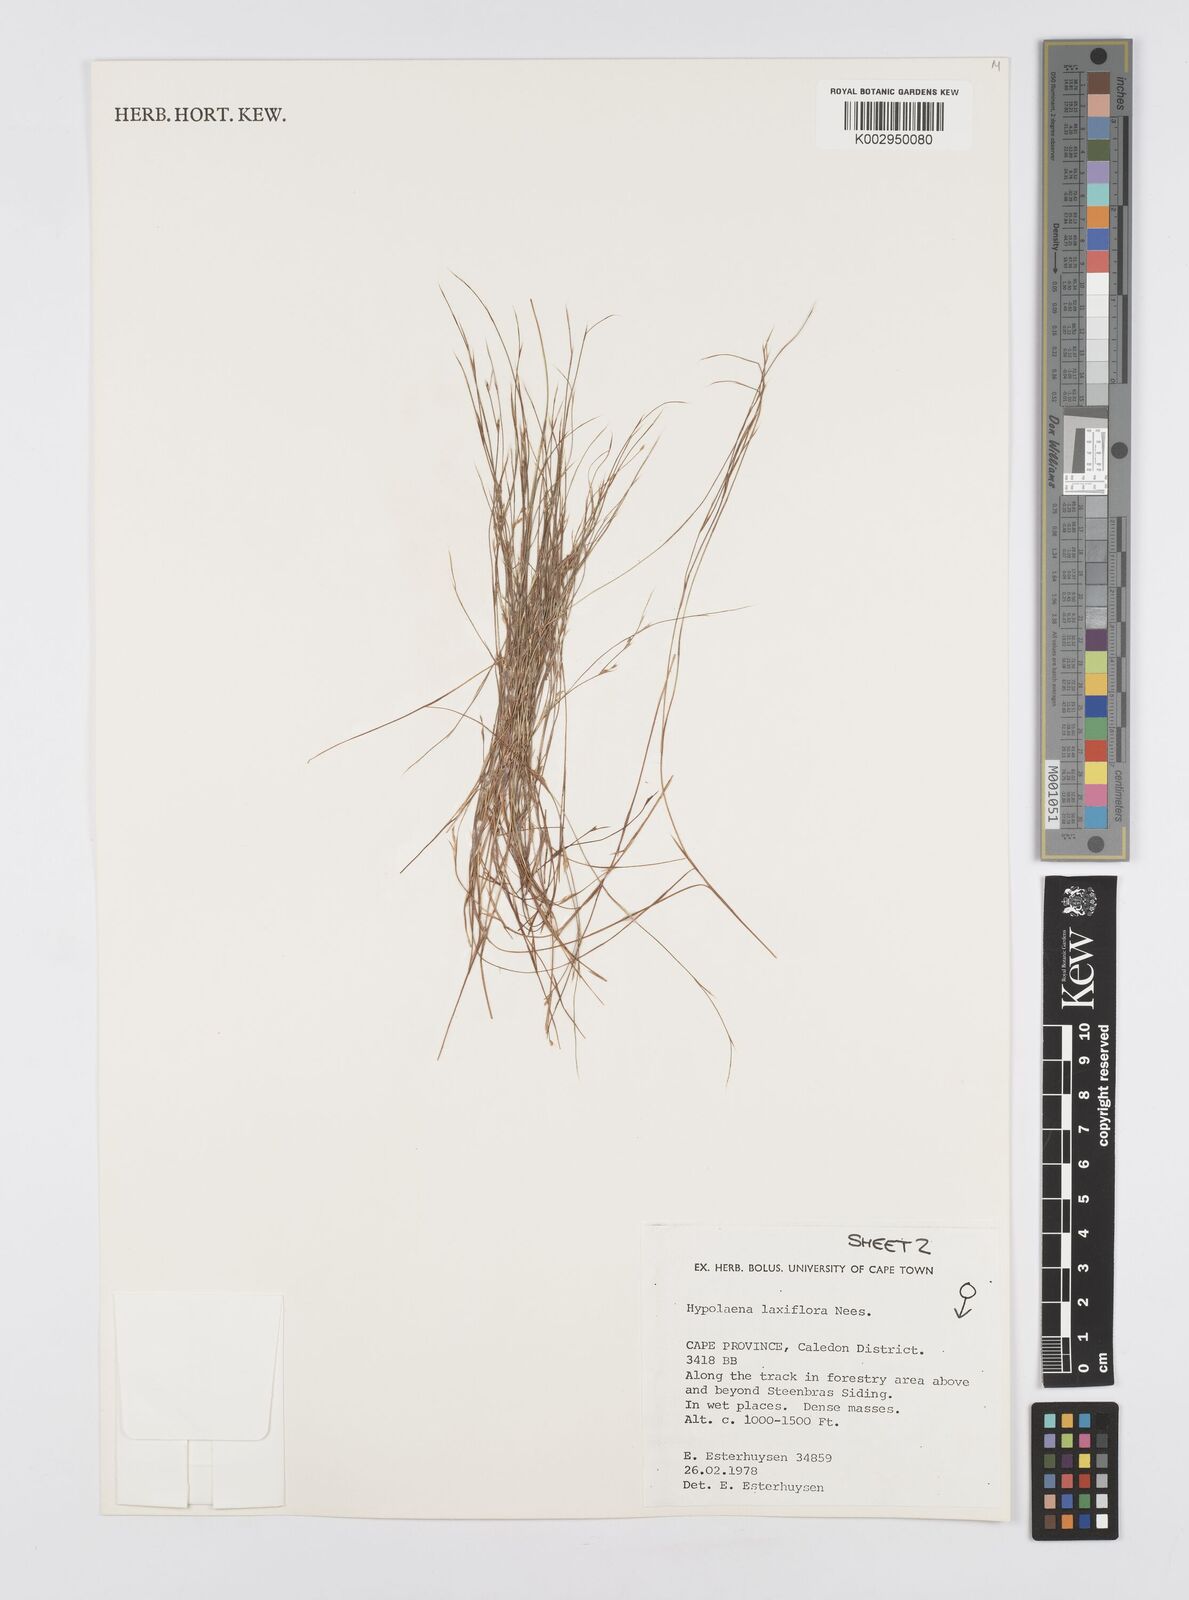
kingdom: Plantae
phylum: Tracheophyta
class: Liliopsida
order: Poales
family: Restionaceae
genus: Anthochortus
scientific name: Anthochortus laxiflorus
